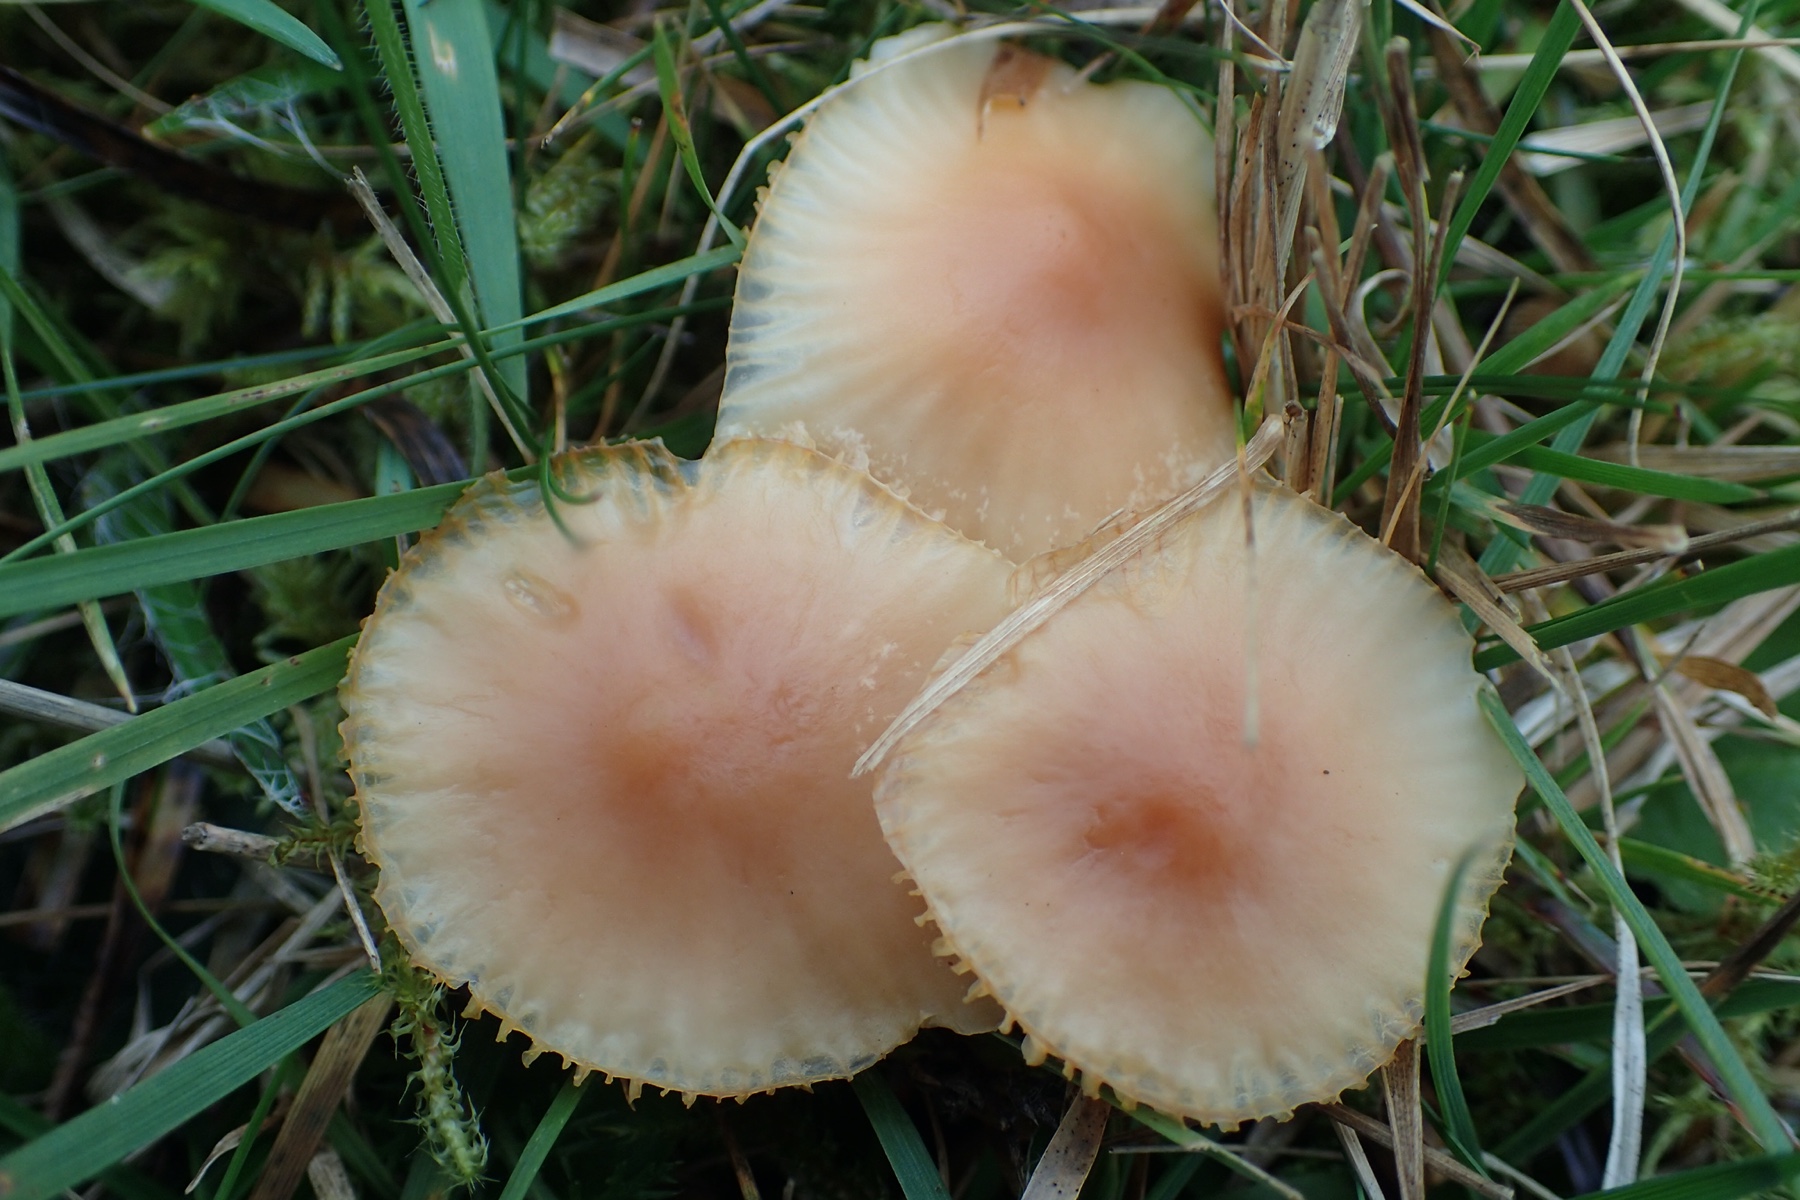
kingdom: Fungi
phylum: Basidiomycota
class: Agaricomycetes
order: Agaricales
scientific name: Agaricales
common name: champignonordenen
